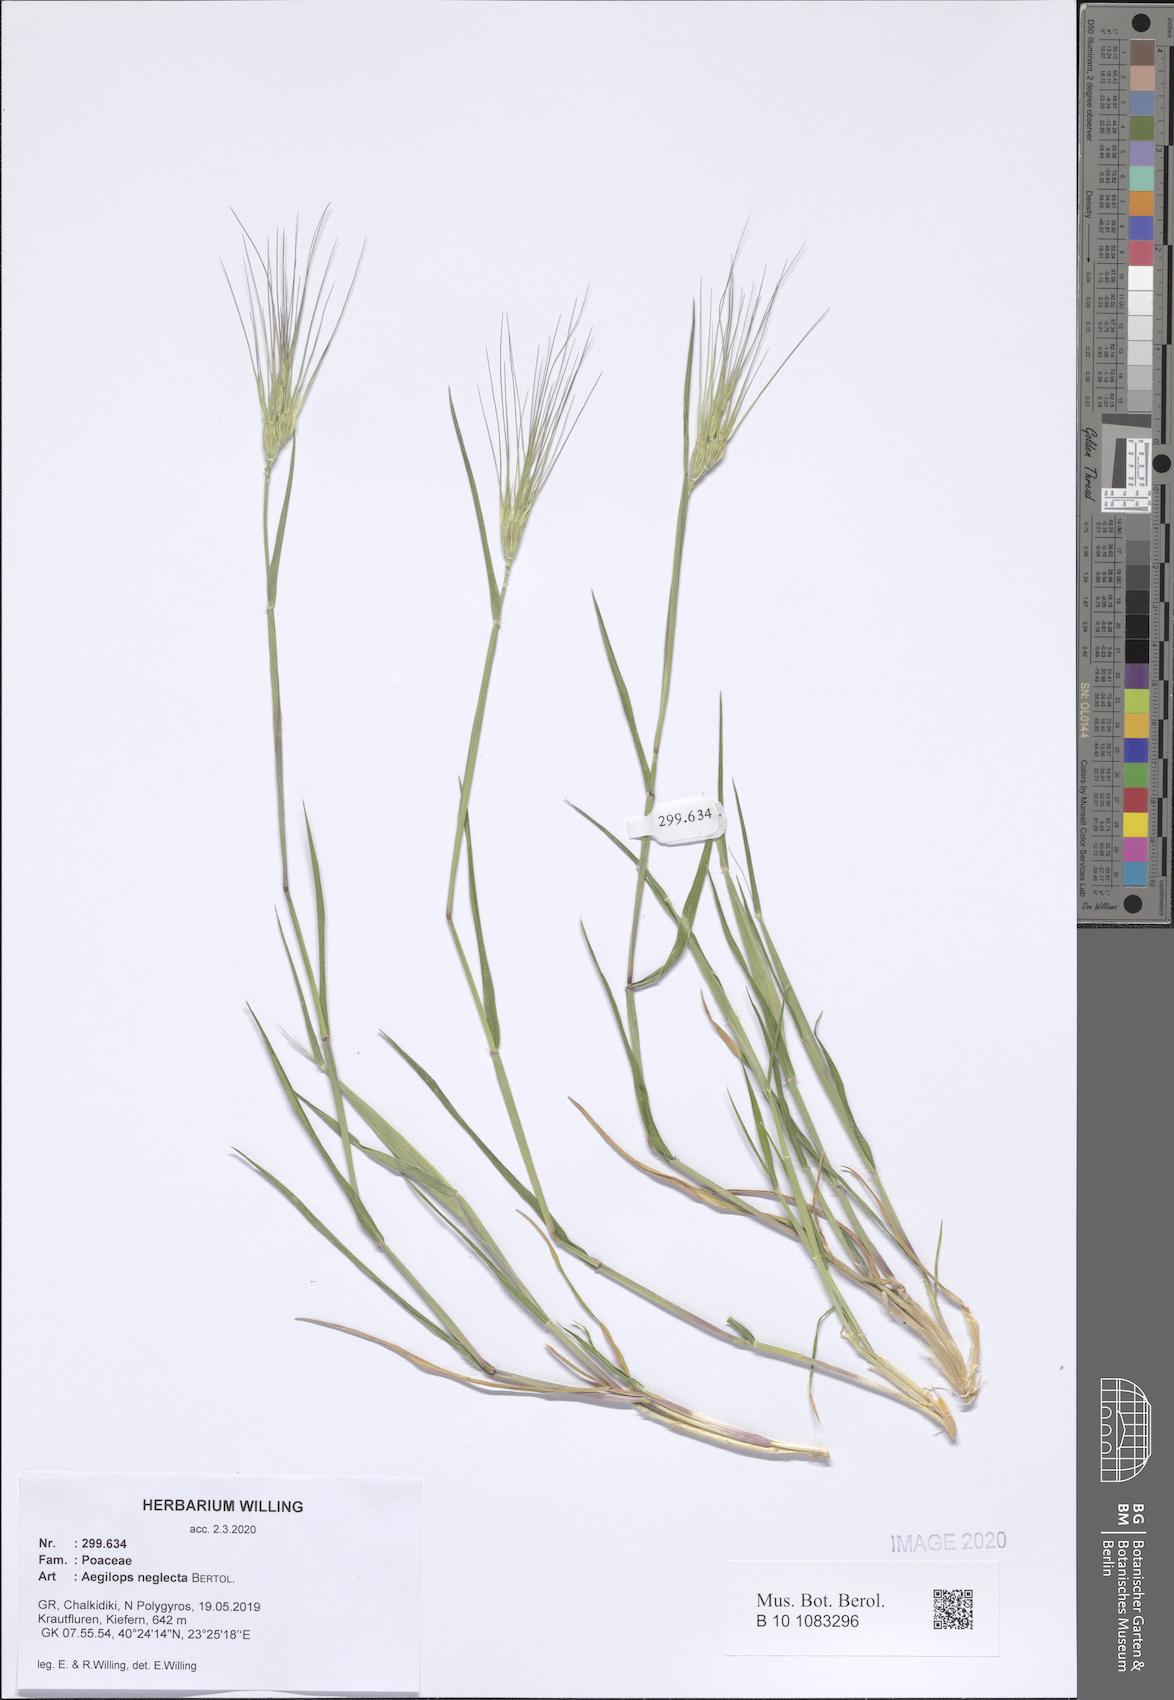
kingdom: Plantae
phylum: Tracheophyta
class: Liliopsida
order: Poales
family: Poaceae
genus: Aegilops
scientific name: Aegilops neglecta
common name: Three-awn goat grass
